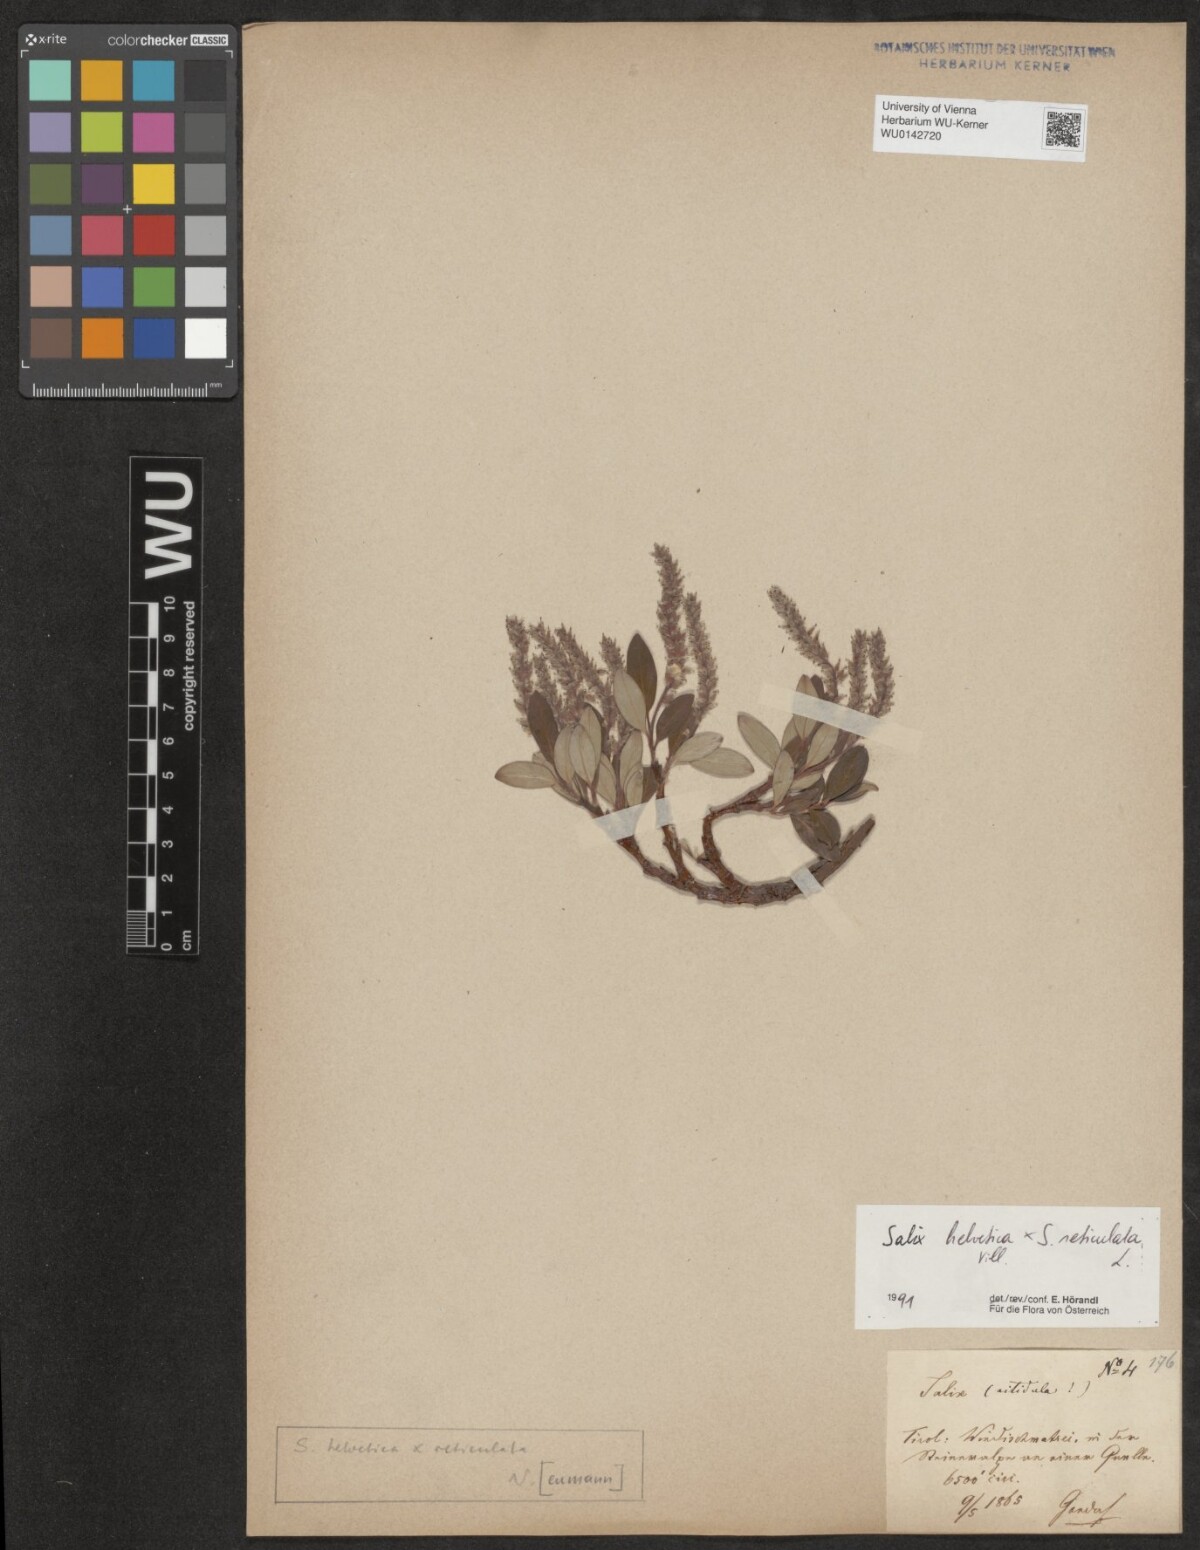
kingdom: Plantae
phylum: Tracheophyta
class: Magnoliopsida
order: Malpighiales
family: Salicaceae
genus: Salix
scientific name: Salix
